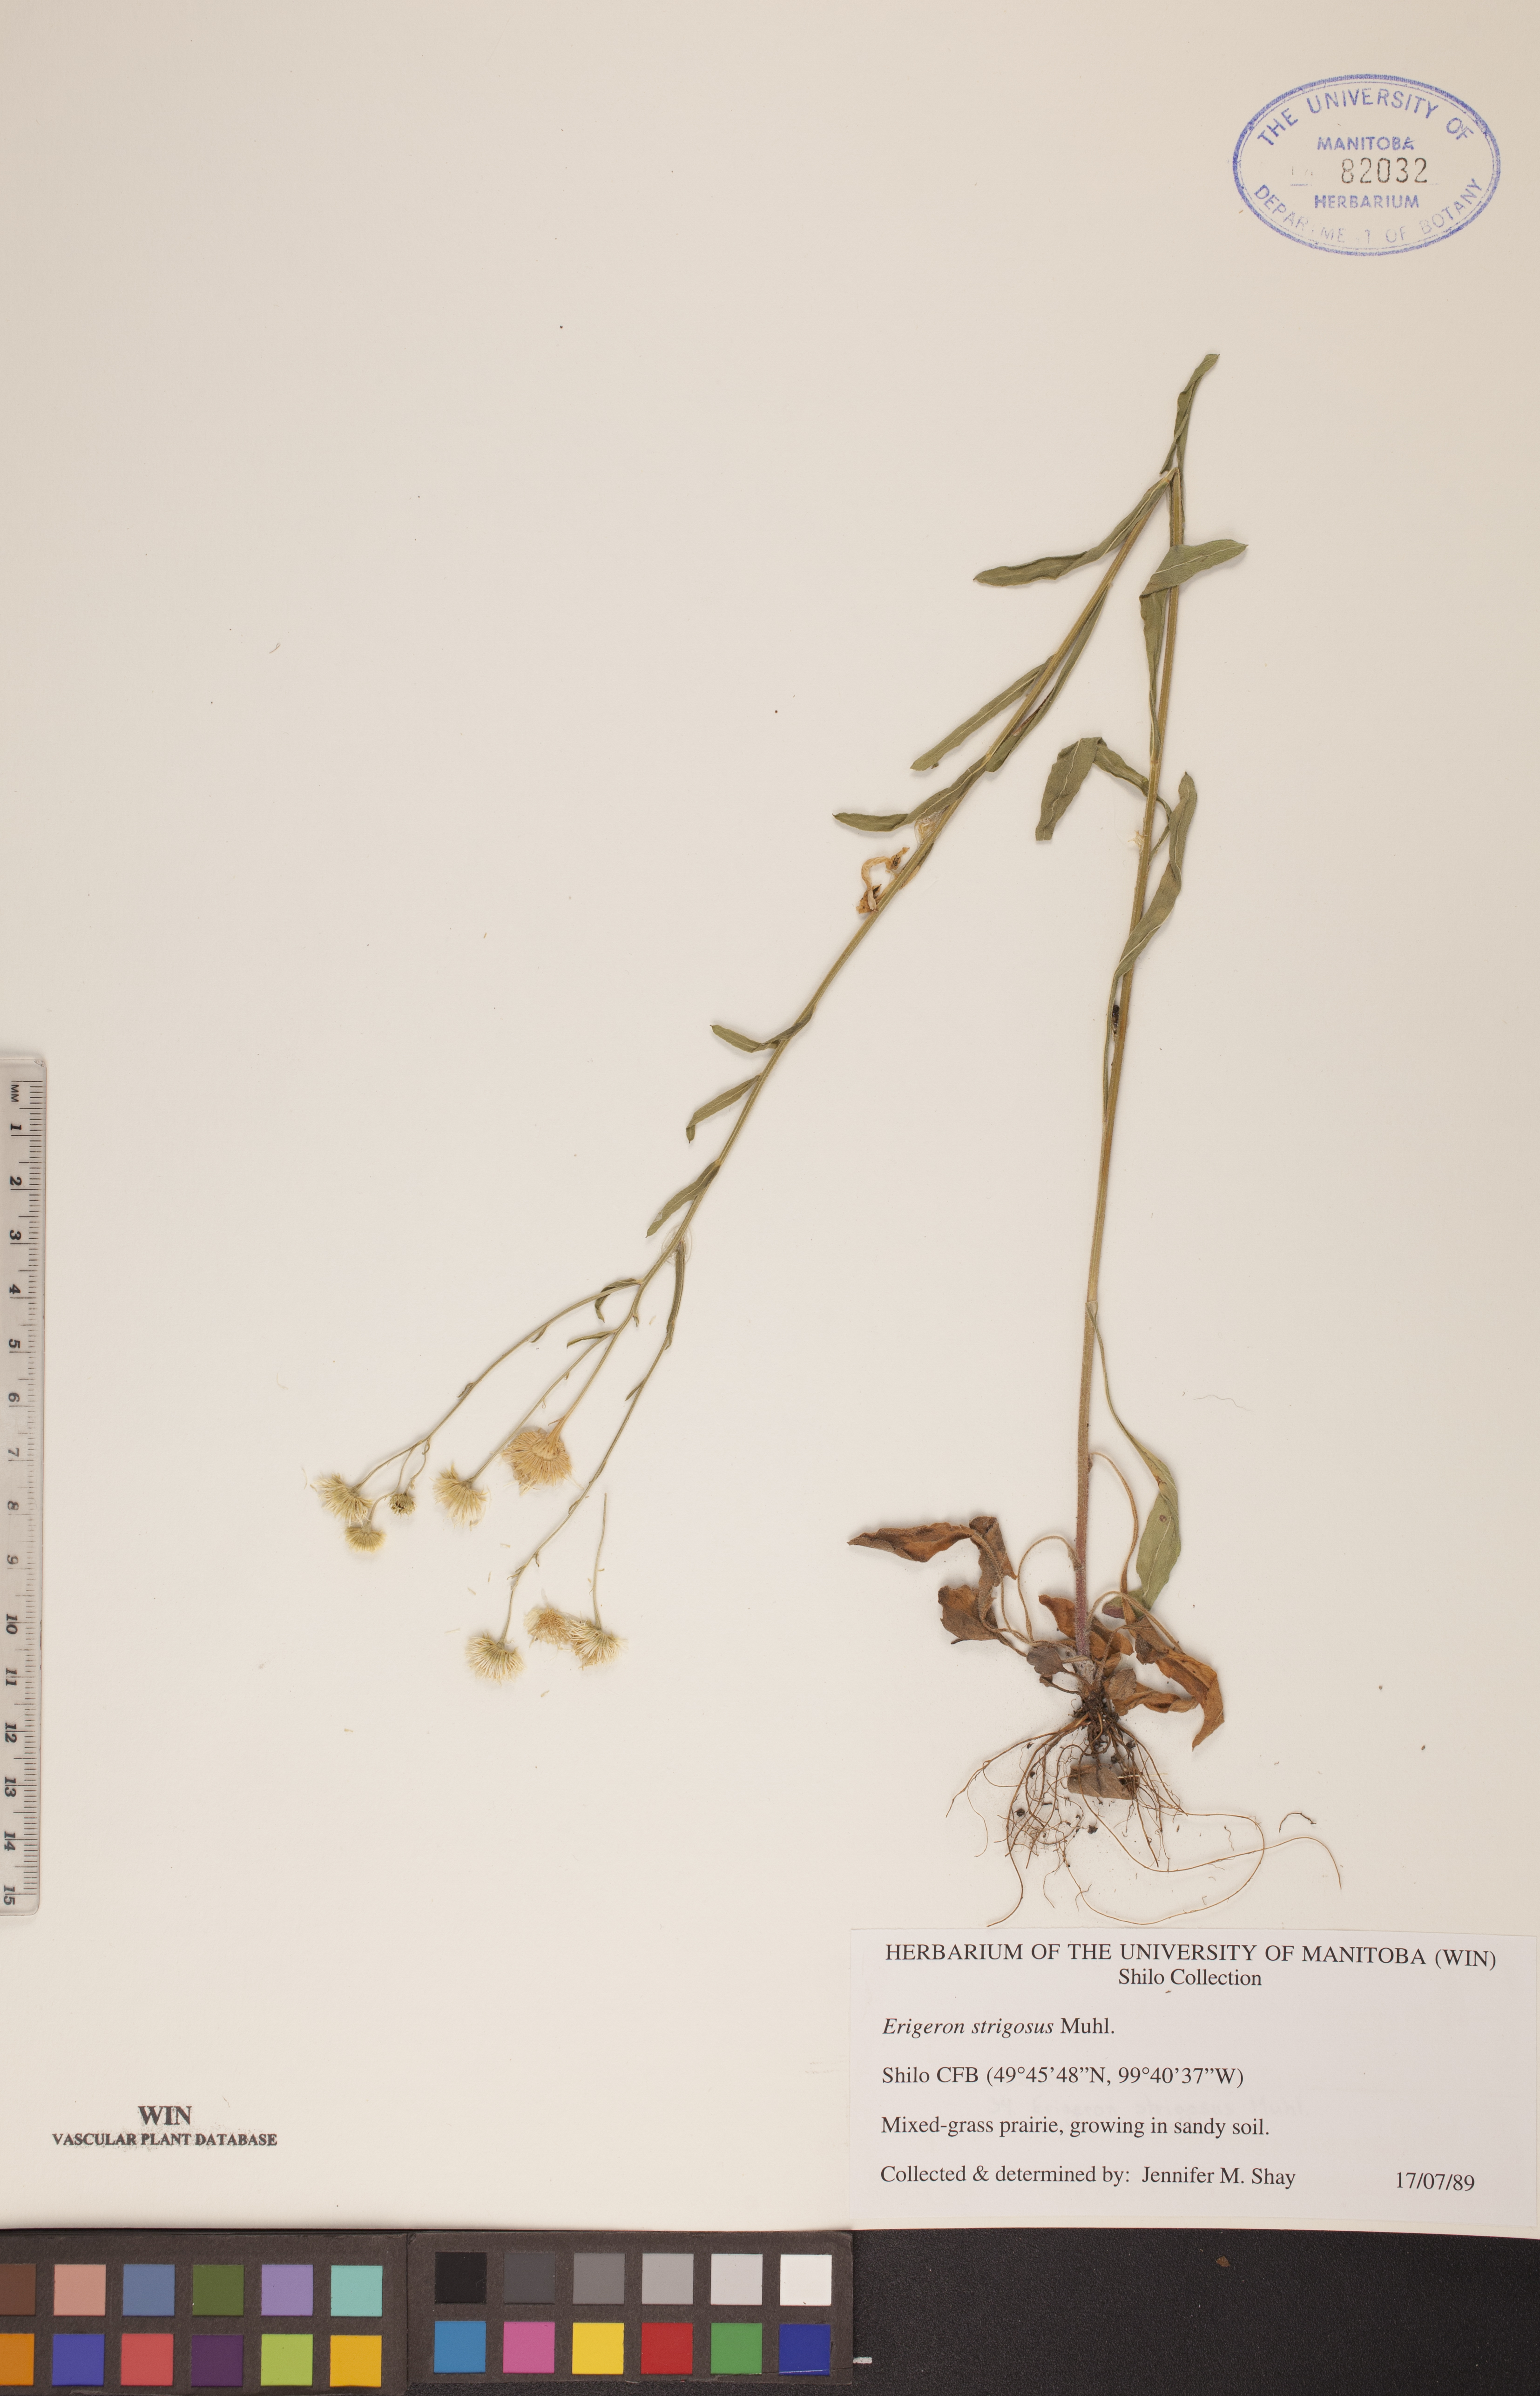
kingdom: Plantae
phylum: Tracheophyta
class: Magnoliopsida
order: Asterales
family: Asteraceae
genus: Erigeron
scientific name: Erigeron strigosus
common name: Common eastern fleabane
